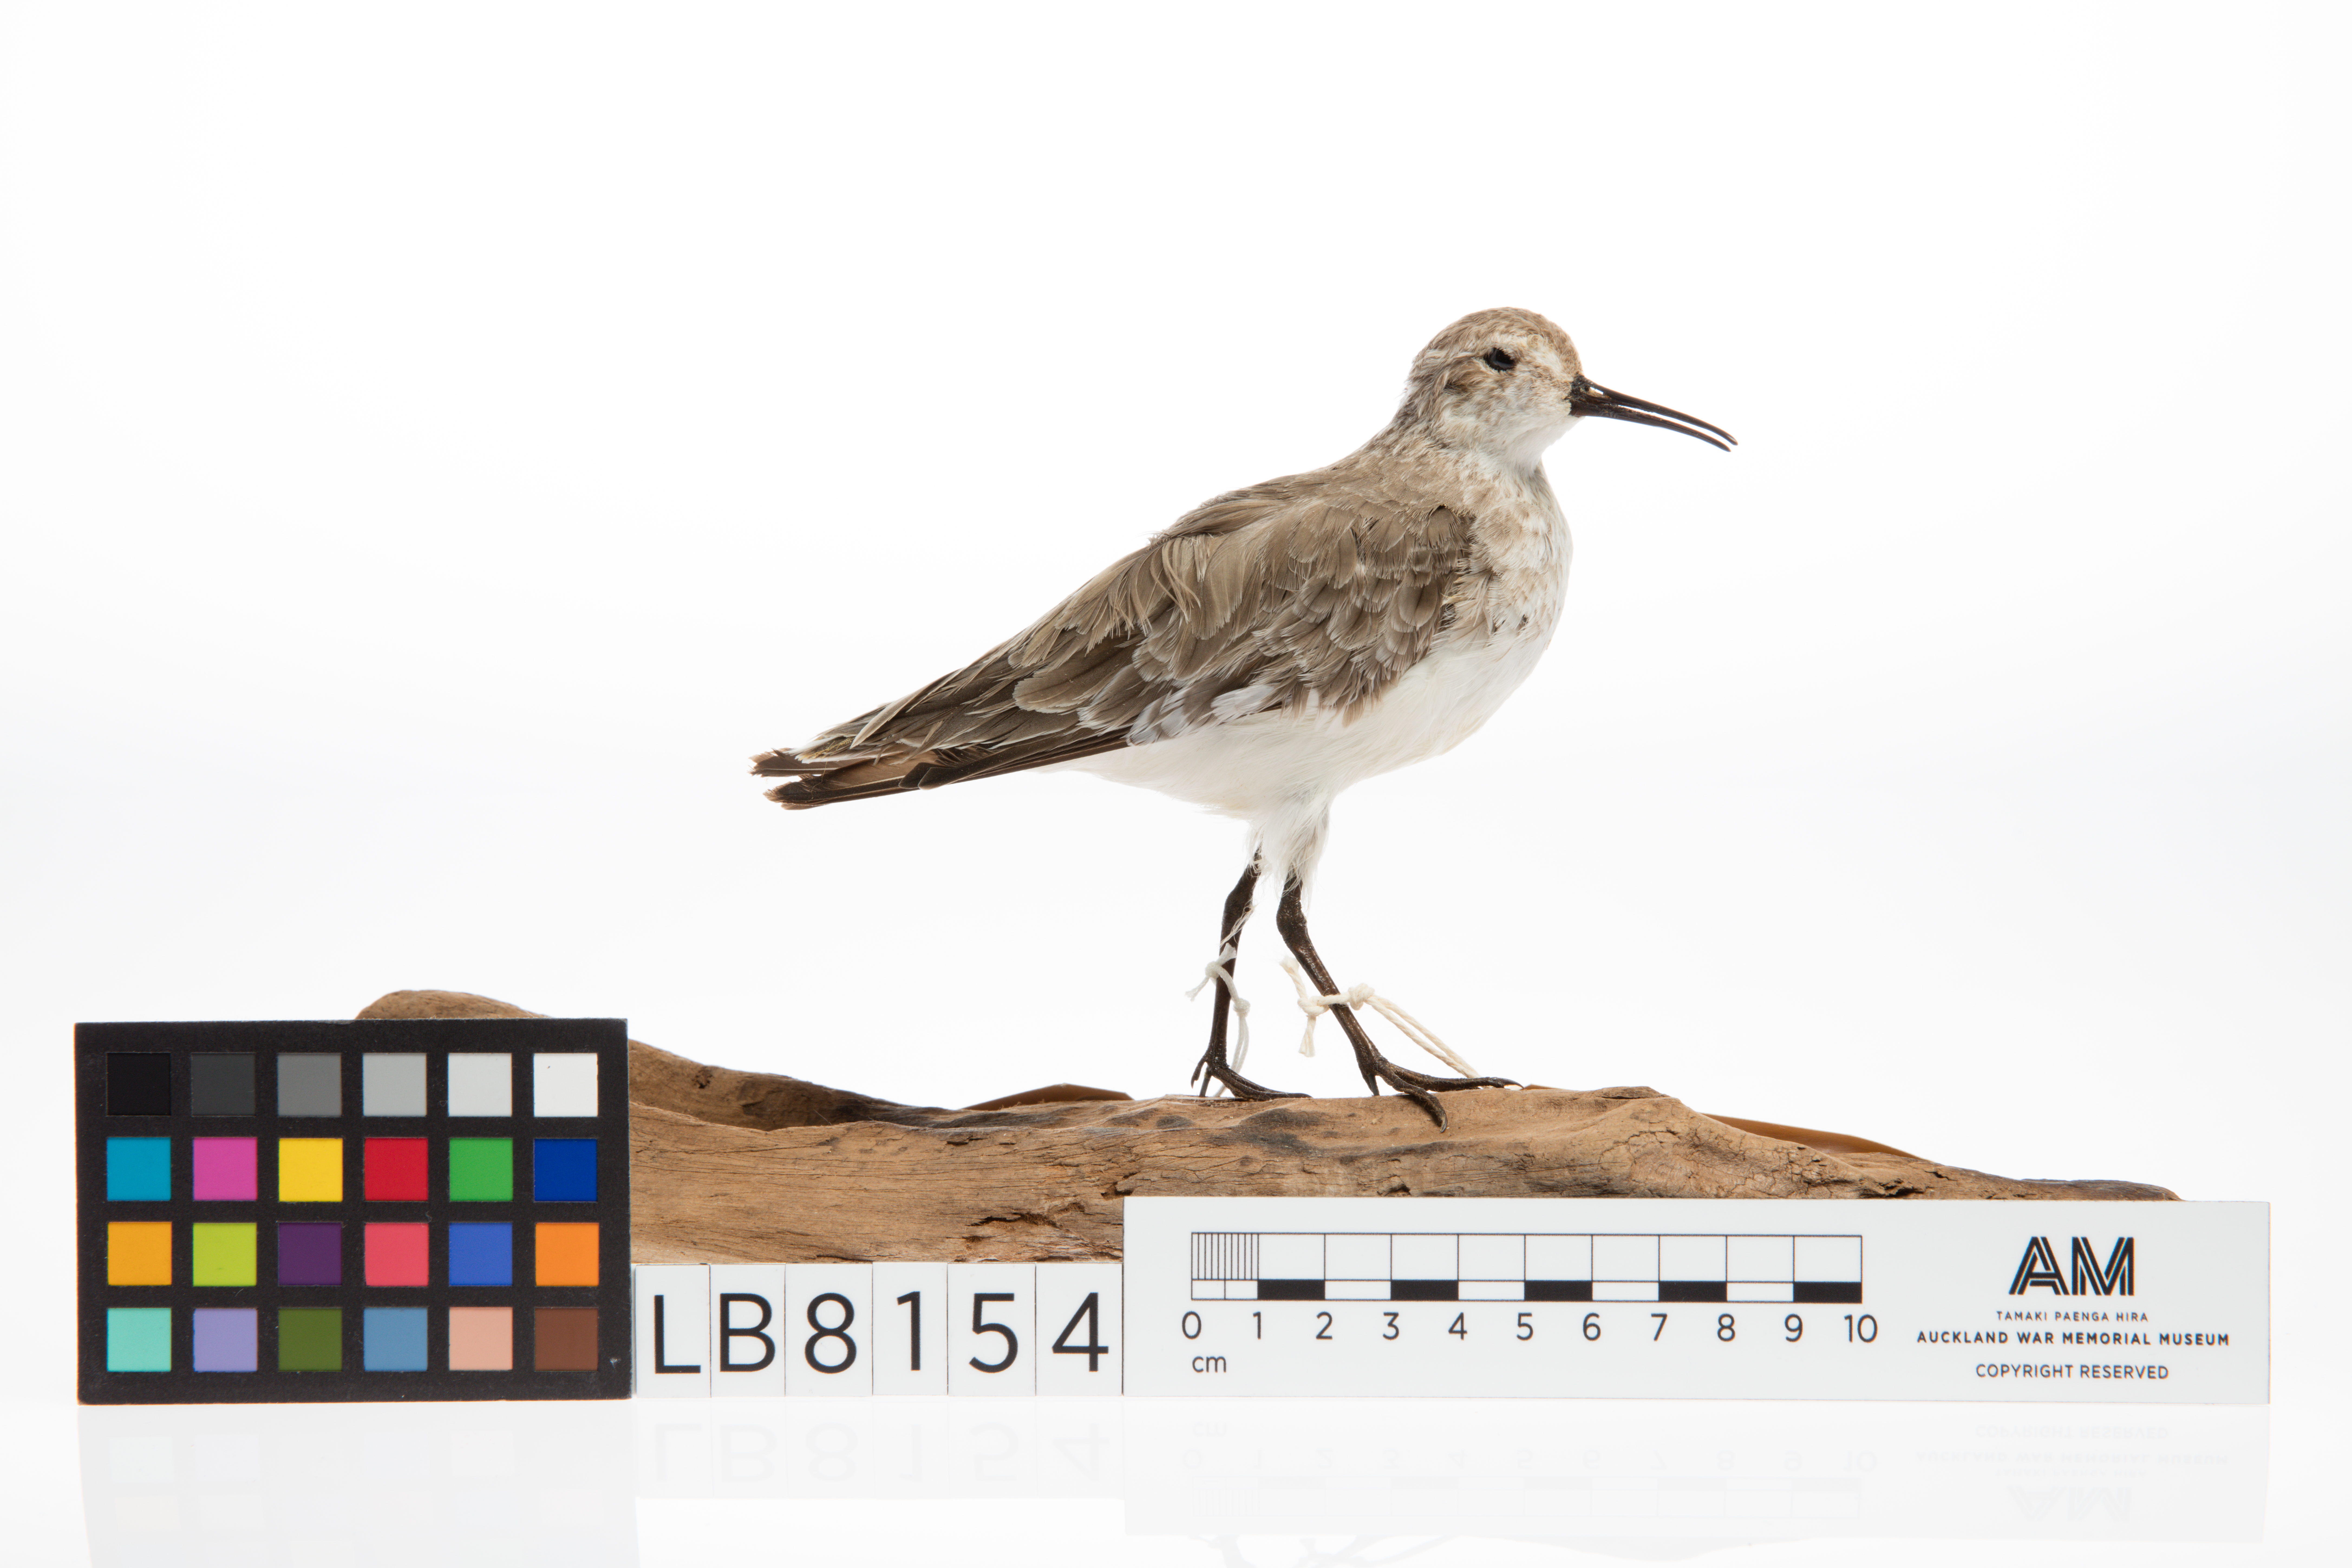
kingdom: Animalia
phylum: Chordata
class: Aves
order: Charadriiformes
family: Scolopacidae
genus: Calidris
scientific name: Calidris ferruginea
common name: Curlew sandpiper
